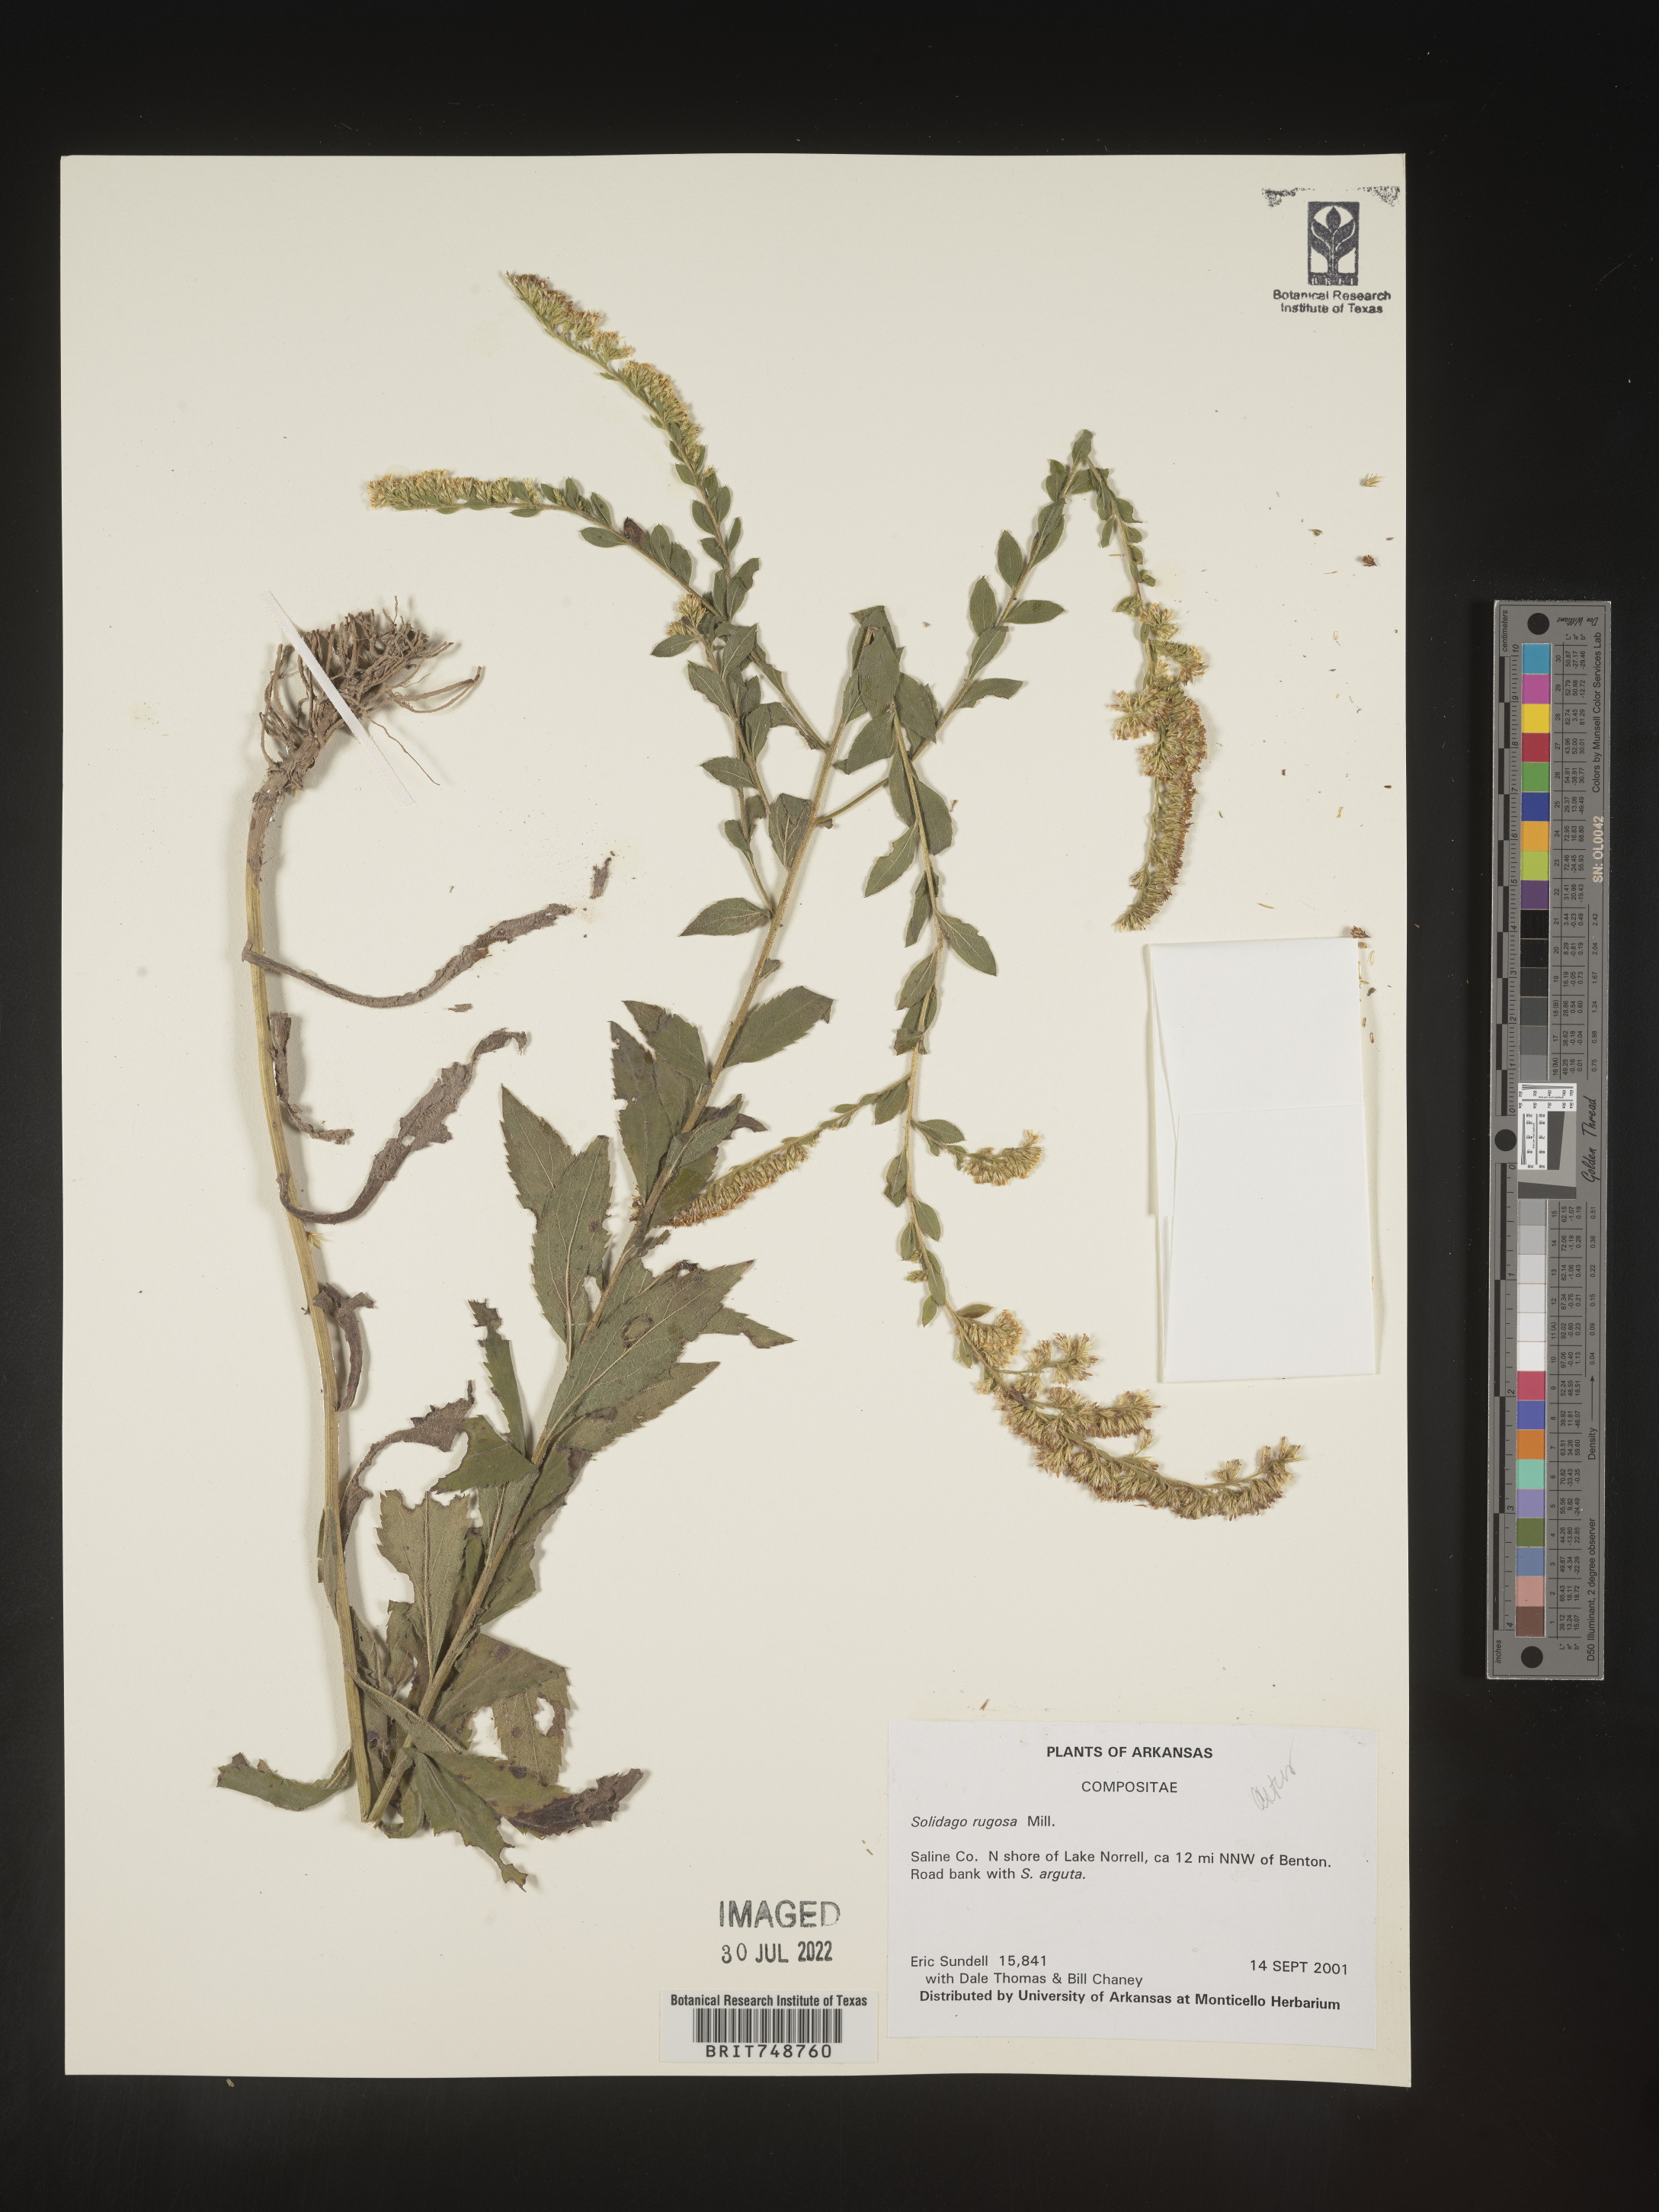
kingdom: Plantae
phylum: Tracheophyta
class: Magnoliopsida
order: Asterales
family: Asteraceae
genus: Solidago
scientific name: Solidago rugosa
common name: Rough-stemmed goldenrod
